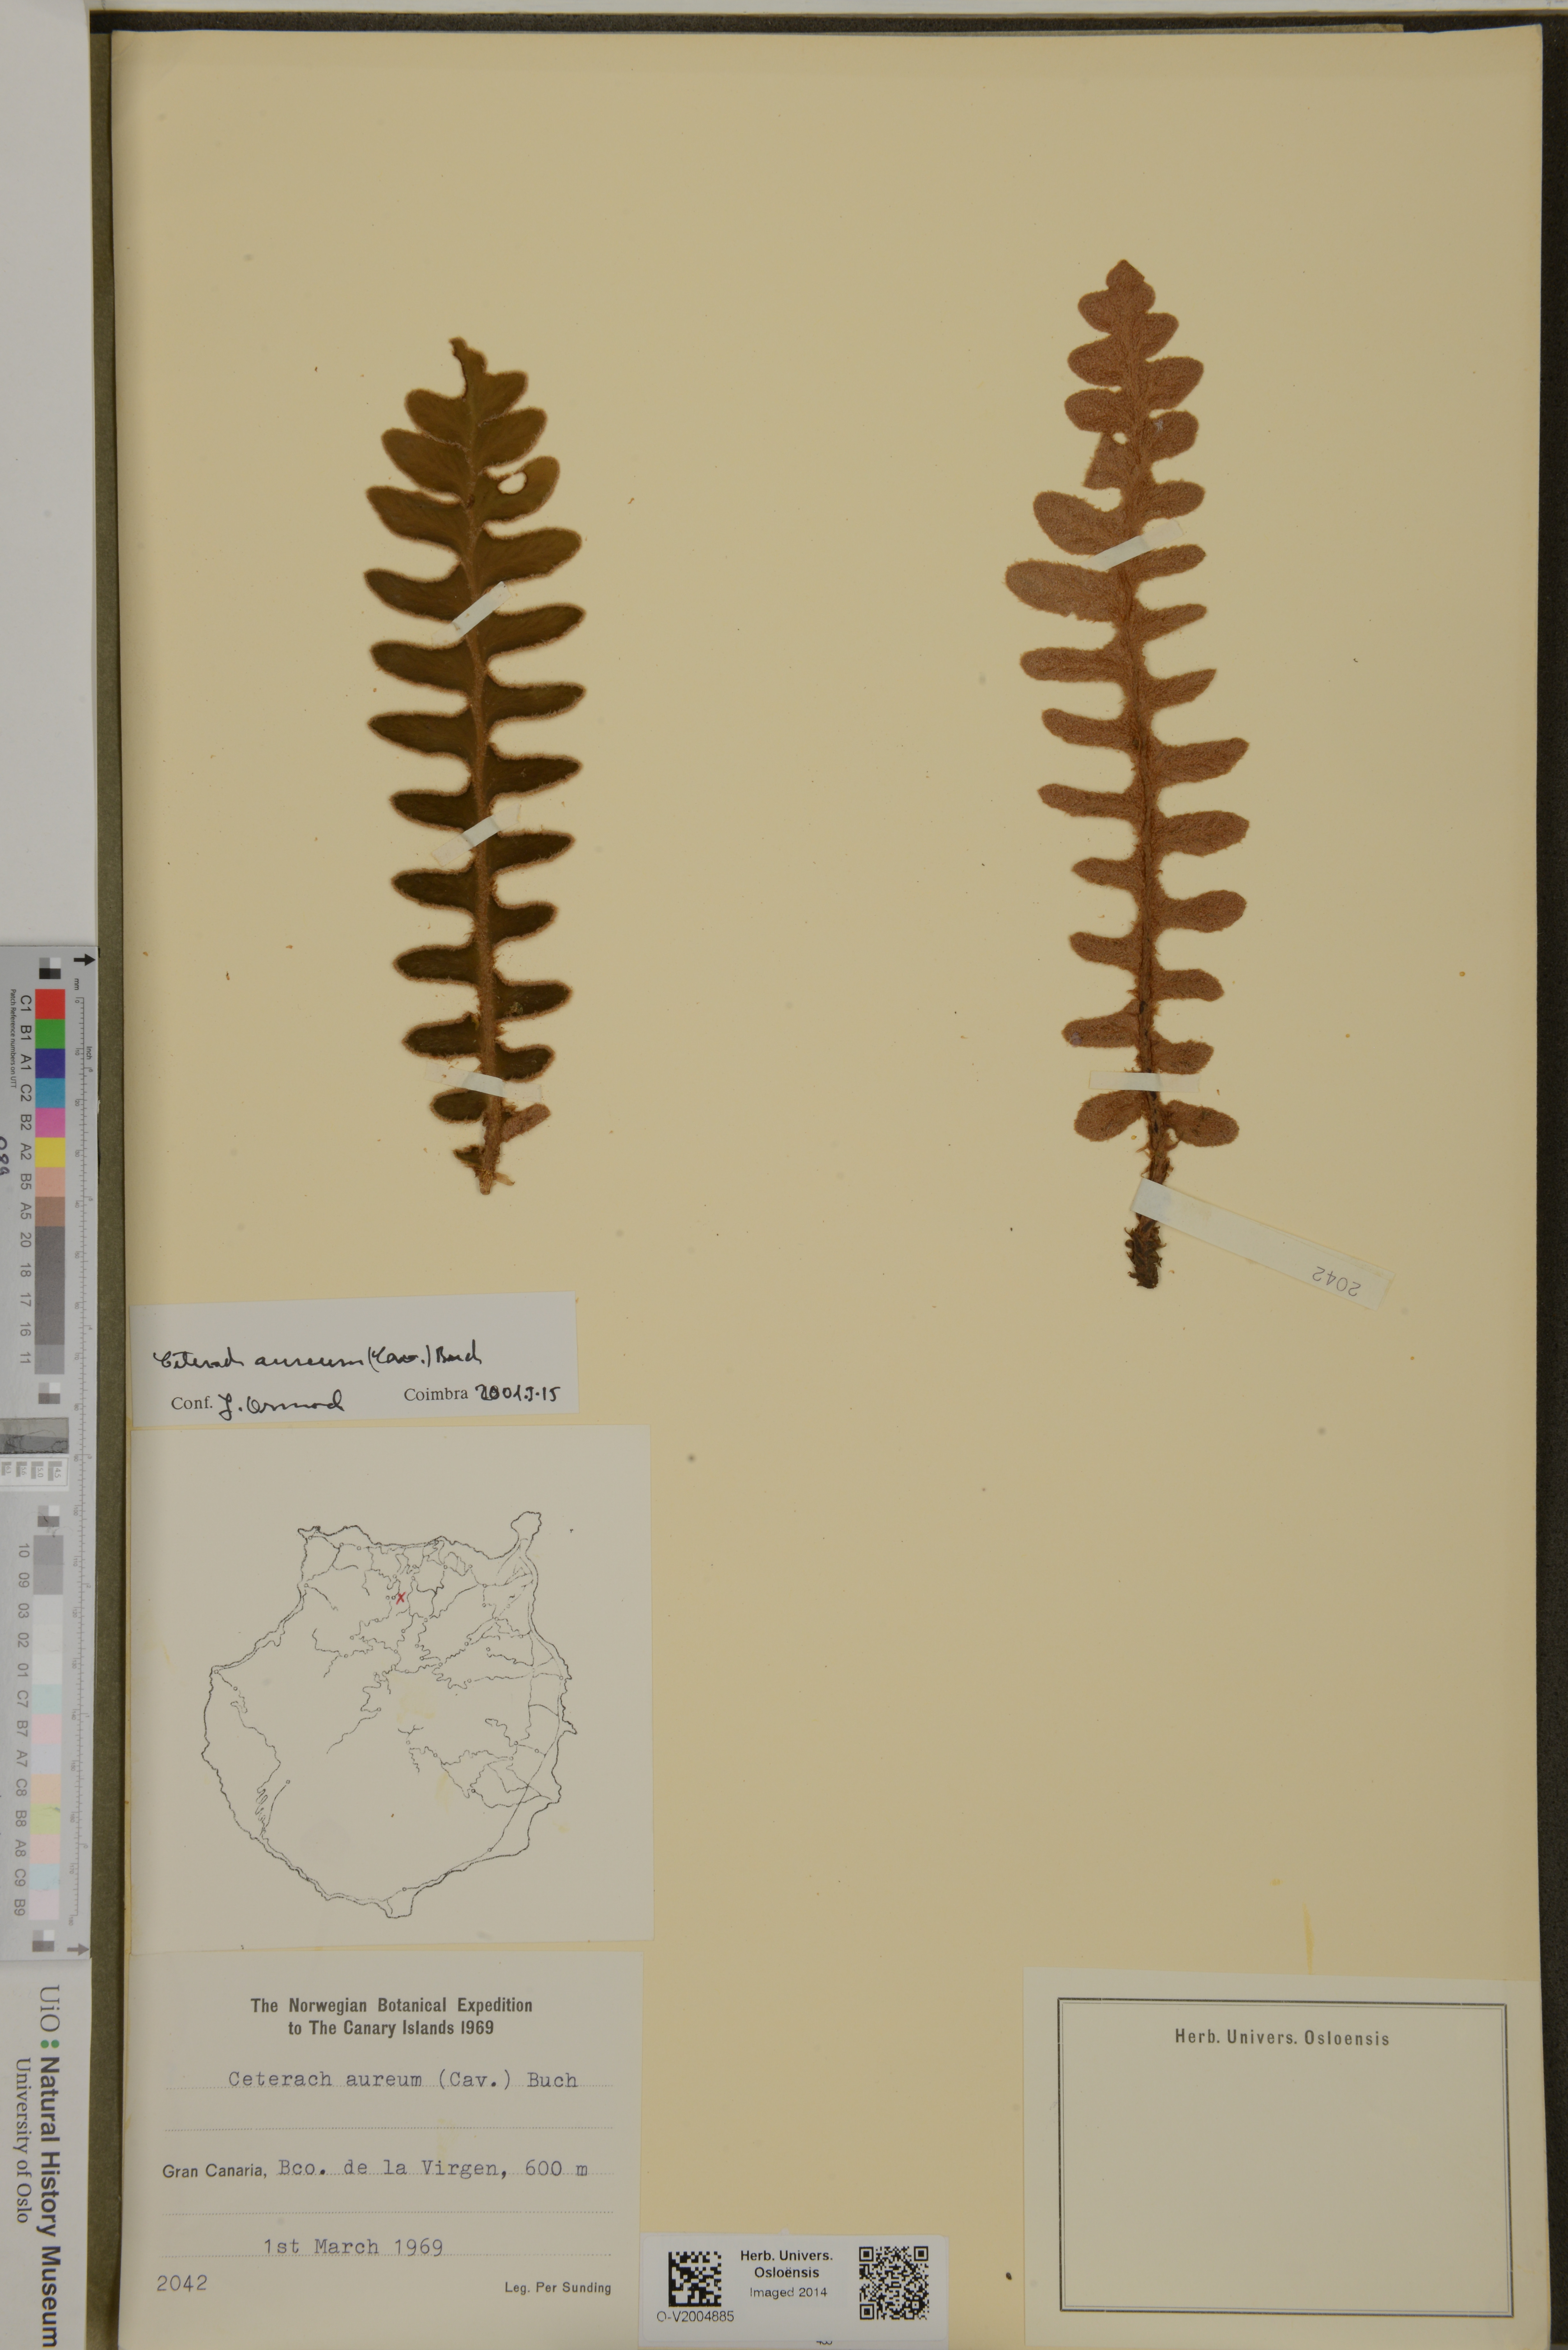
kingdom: Plantae
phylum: Tracheophyta
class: Polypodiopsida
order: Polypodiales
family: Aspleniaceae
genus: Asplenium
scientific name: Asplenium aureum
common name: Golden rustyback fern
